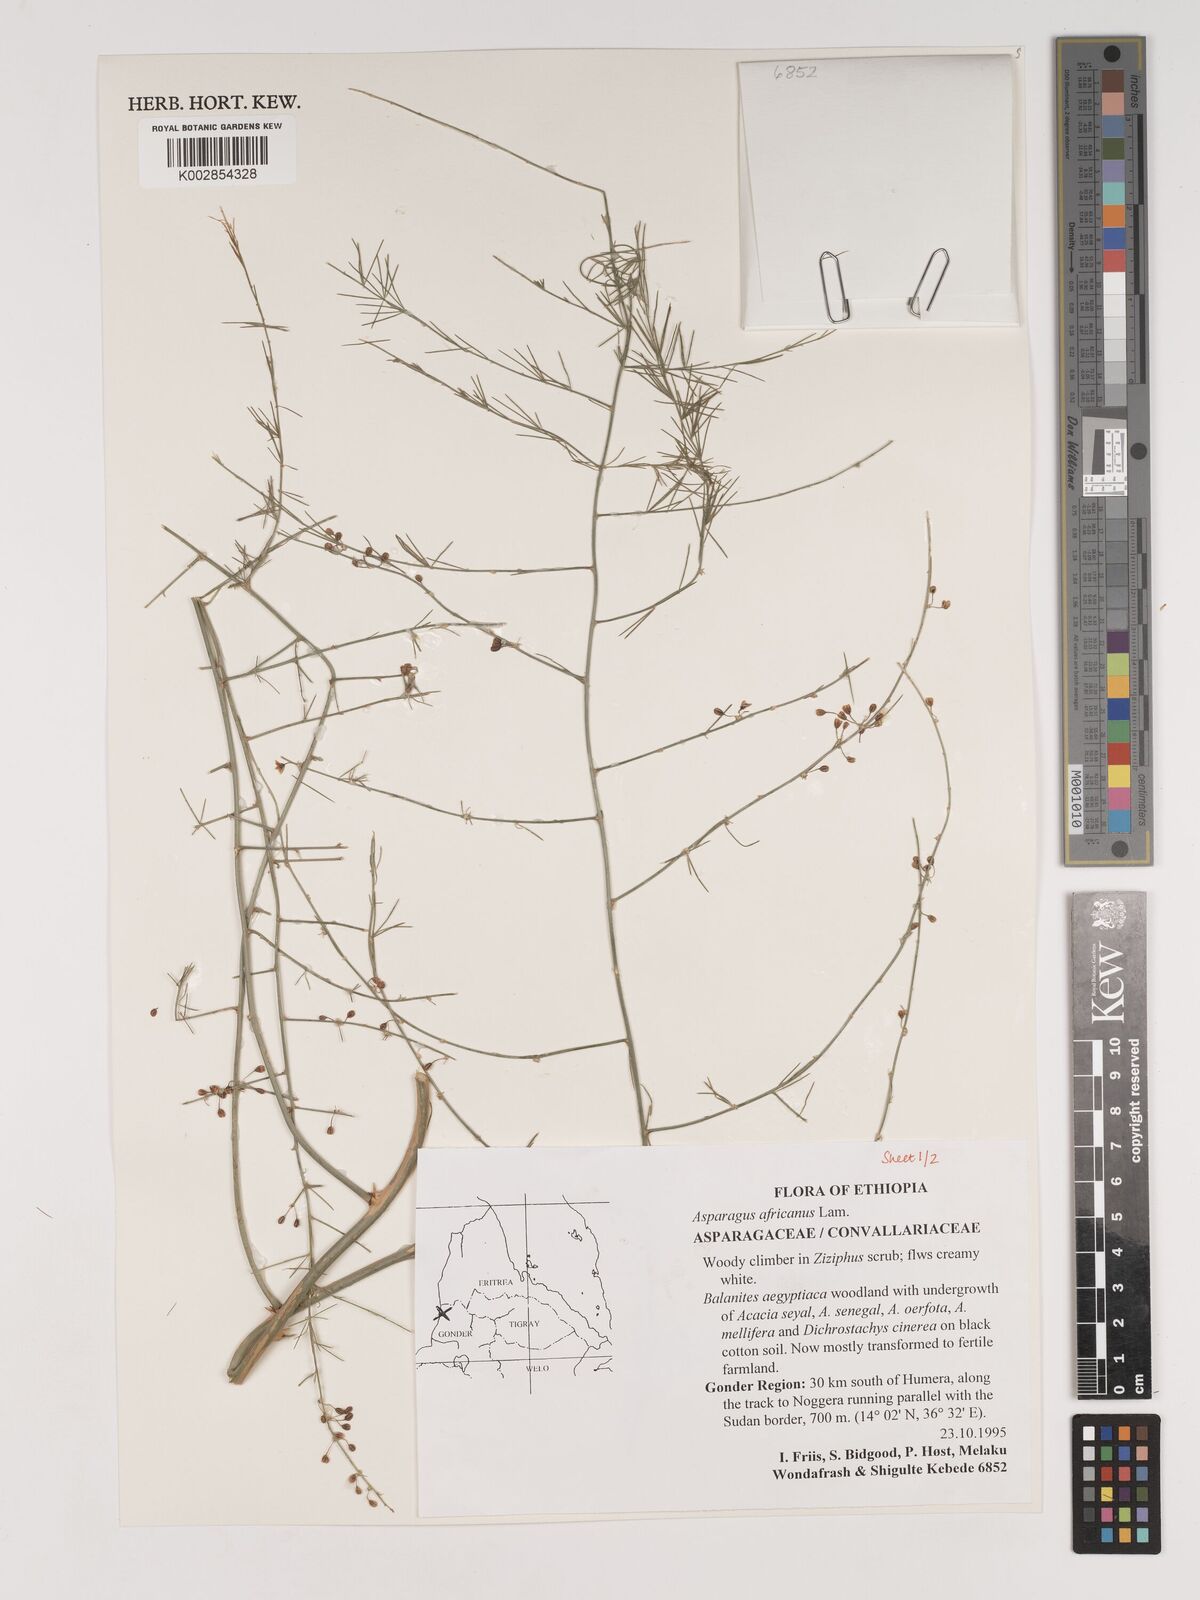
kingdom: Plantae
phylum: Tracheophyta
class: Liliopsida
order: Asparagales
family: Asparagaceae
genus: Asparagus
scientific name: Asparagus africanus
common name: Asparagus-fern
